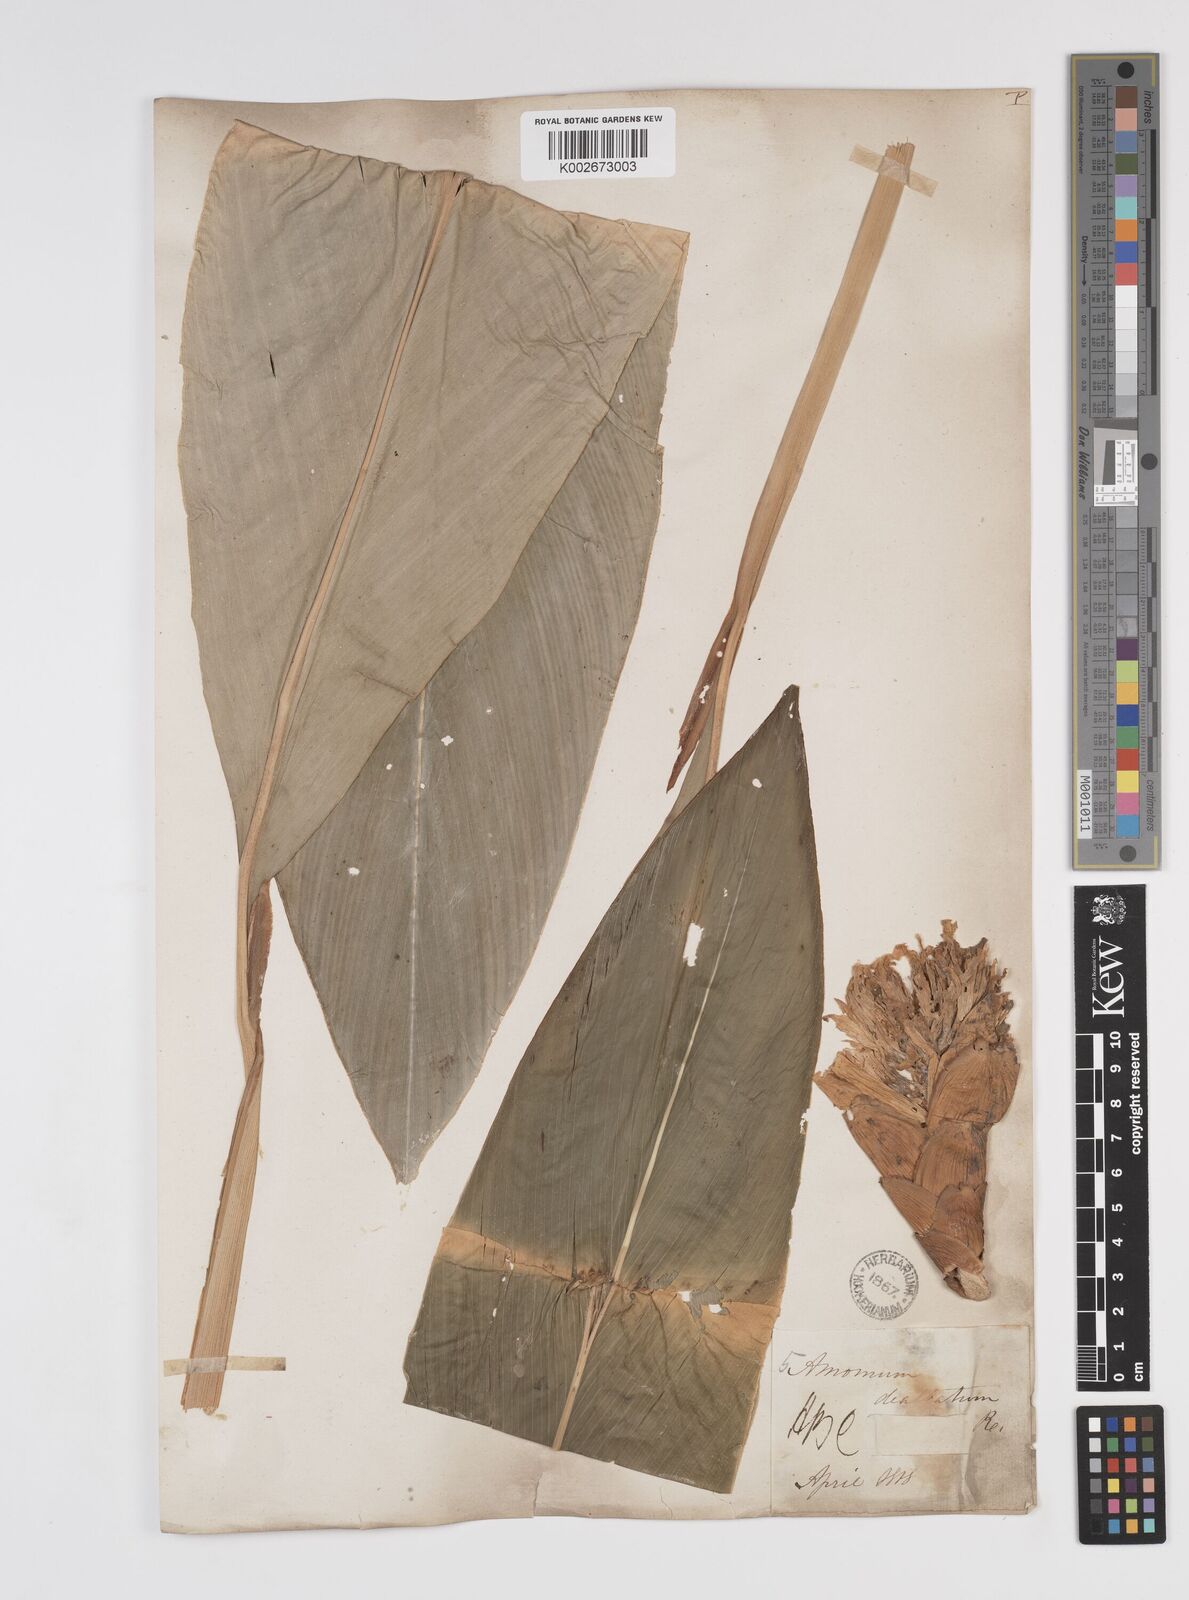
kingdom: Plantae
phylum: Tracheophyta
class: Liliopsida
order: Zingiberales
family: Zingiberaceae
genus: Amomum
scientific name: Amomum dealbatum
